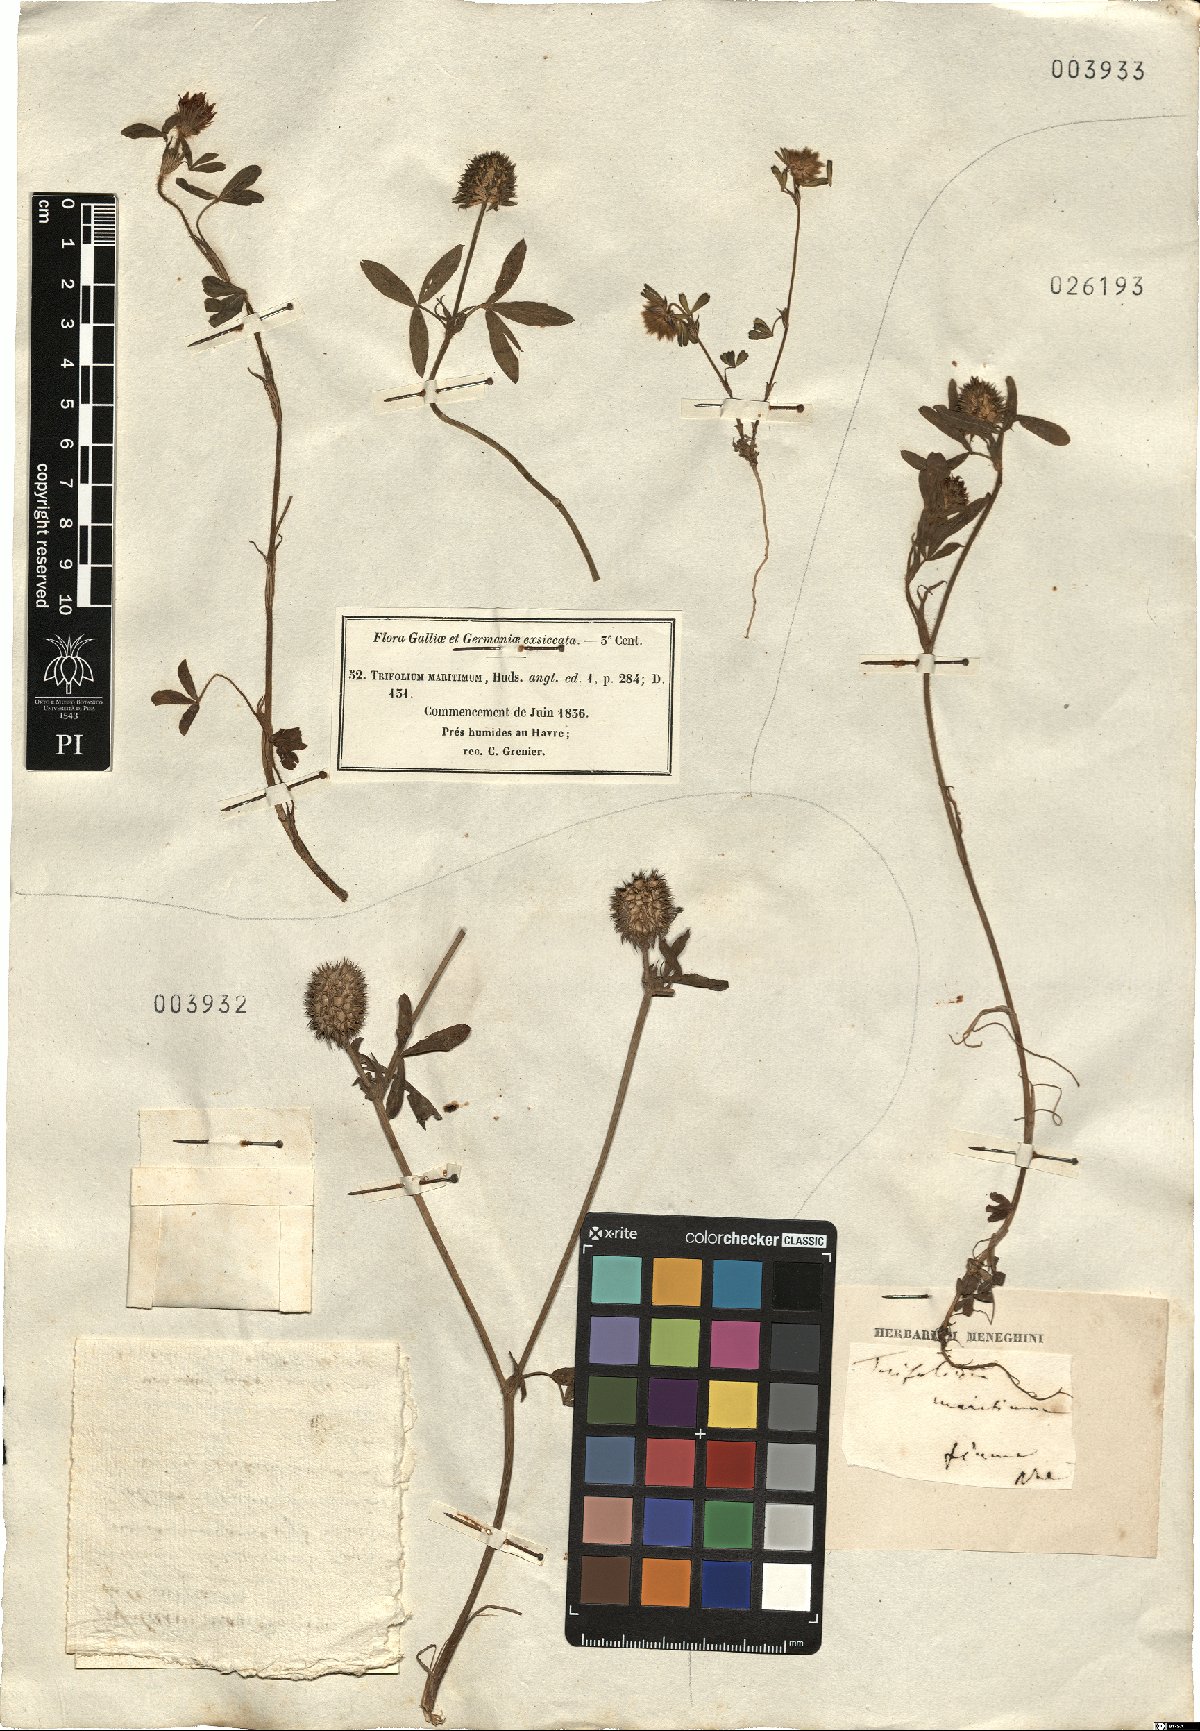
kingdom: Plantae
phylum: Tracheophyta
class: Magnoliopsida
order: Fabales
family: Fabaceae
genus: Trifolium
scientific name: Trifolium squamosum
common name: Sea clover
